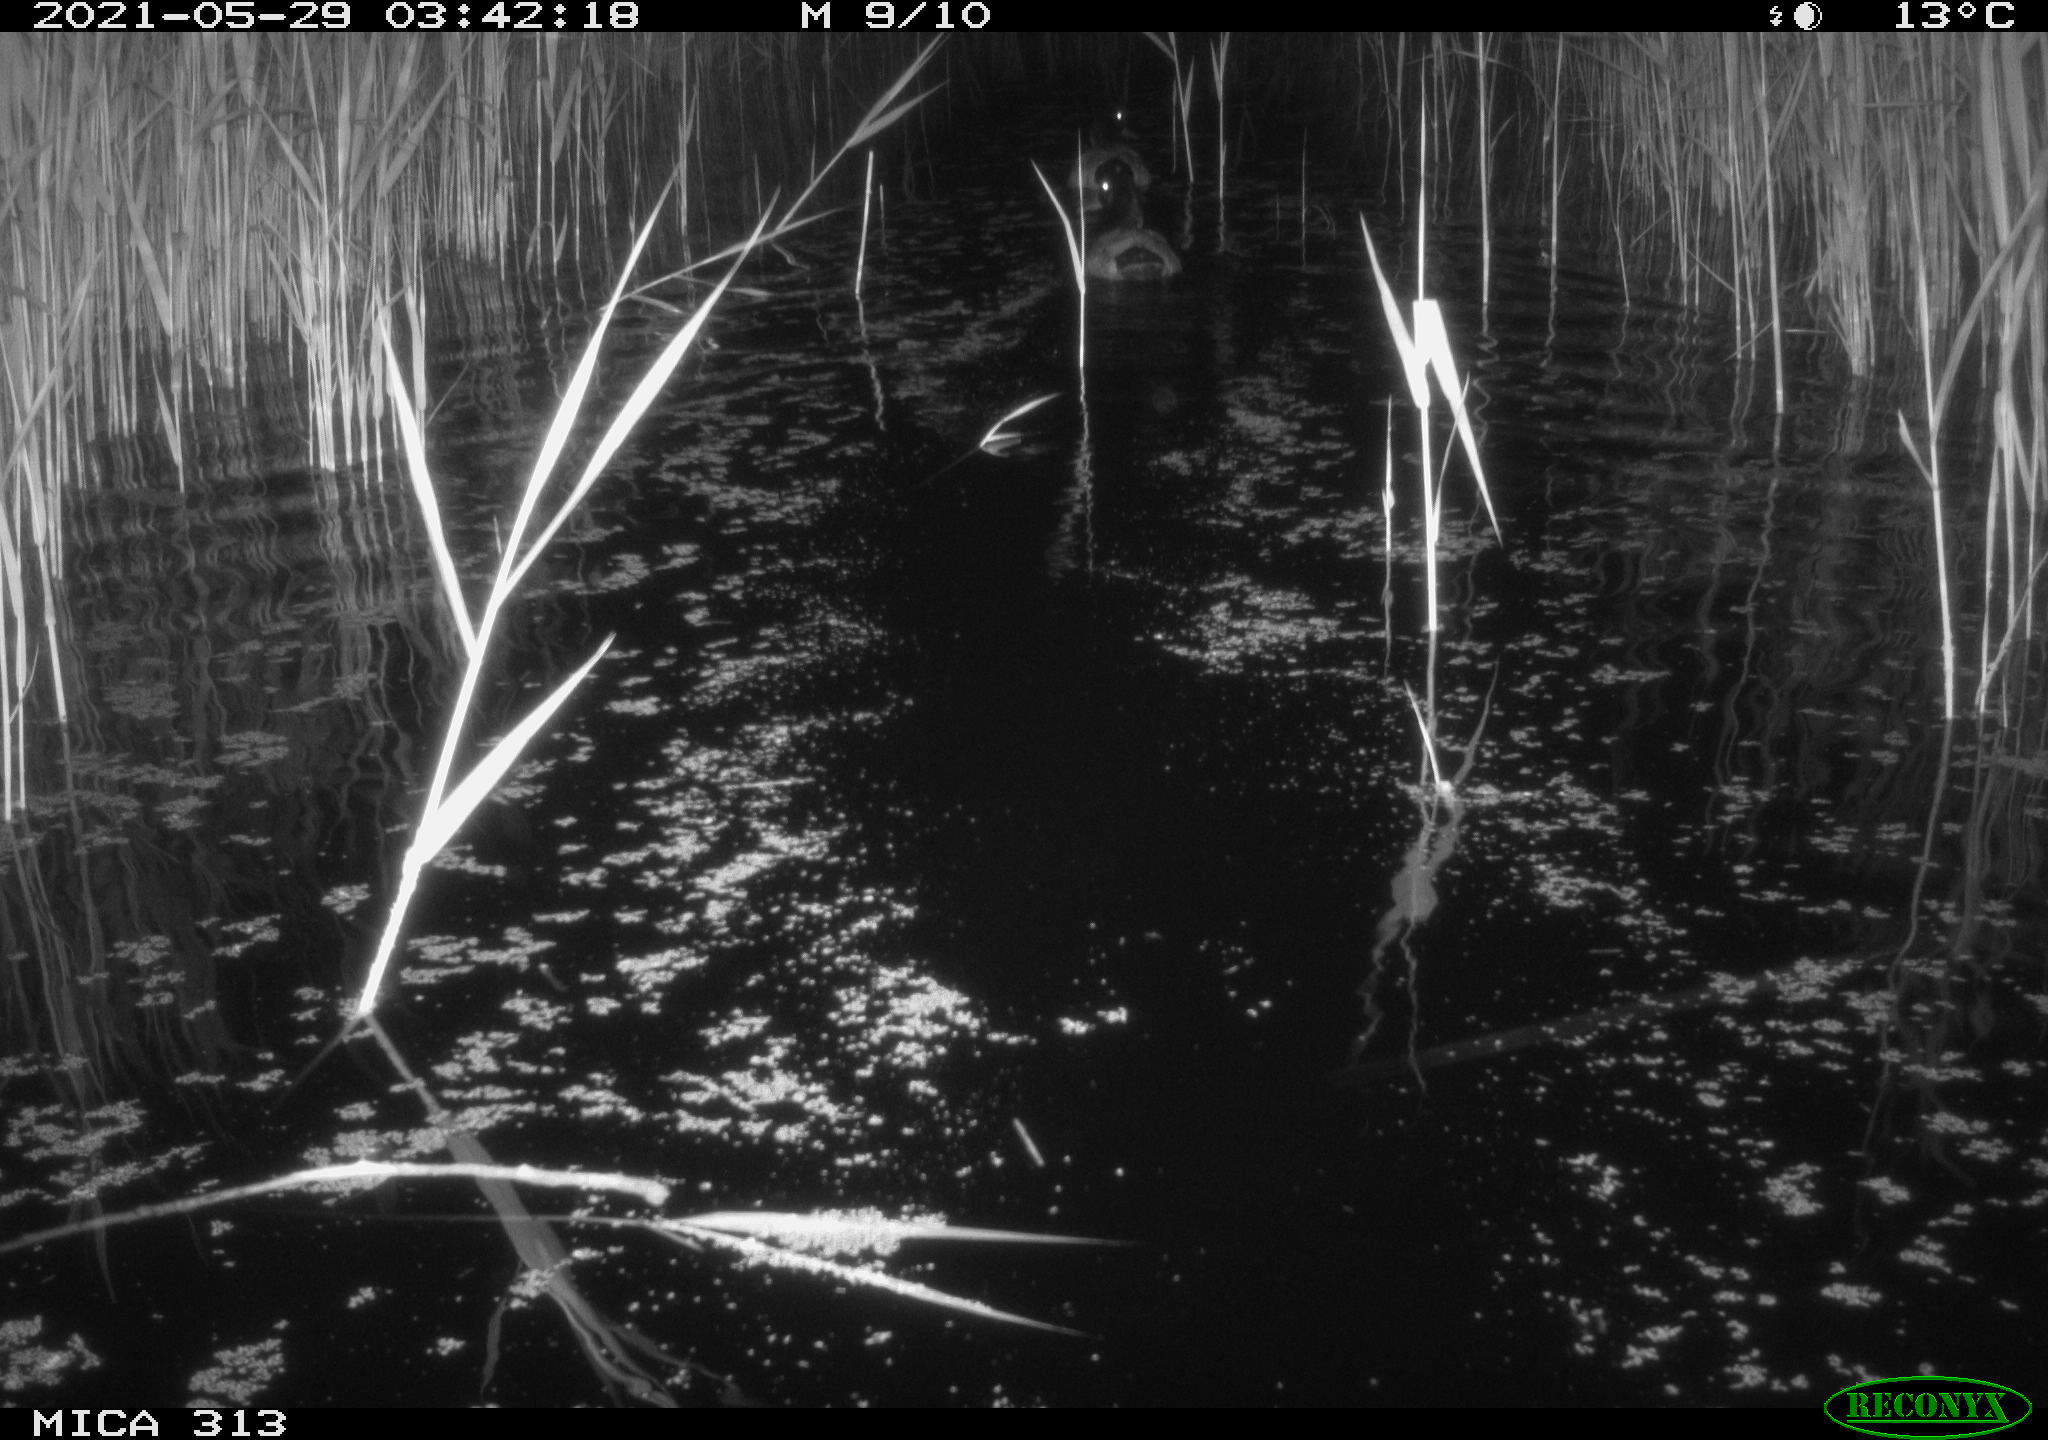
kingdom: Animalia
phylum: Chordata
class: Aves
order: Anseriformes
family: Anatidae
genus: Anas
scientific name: Anas platyrhynchos
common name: Mallard
